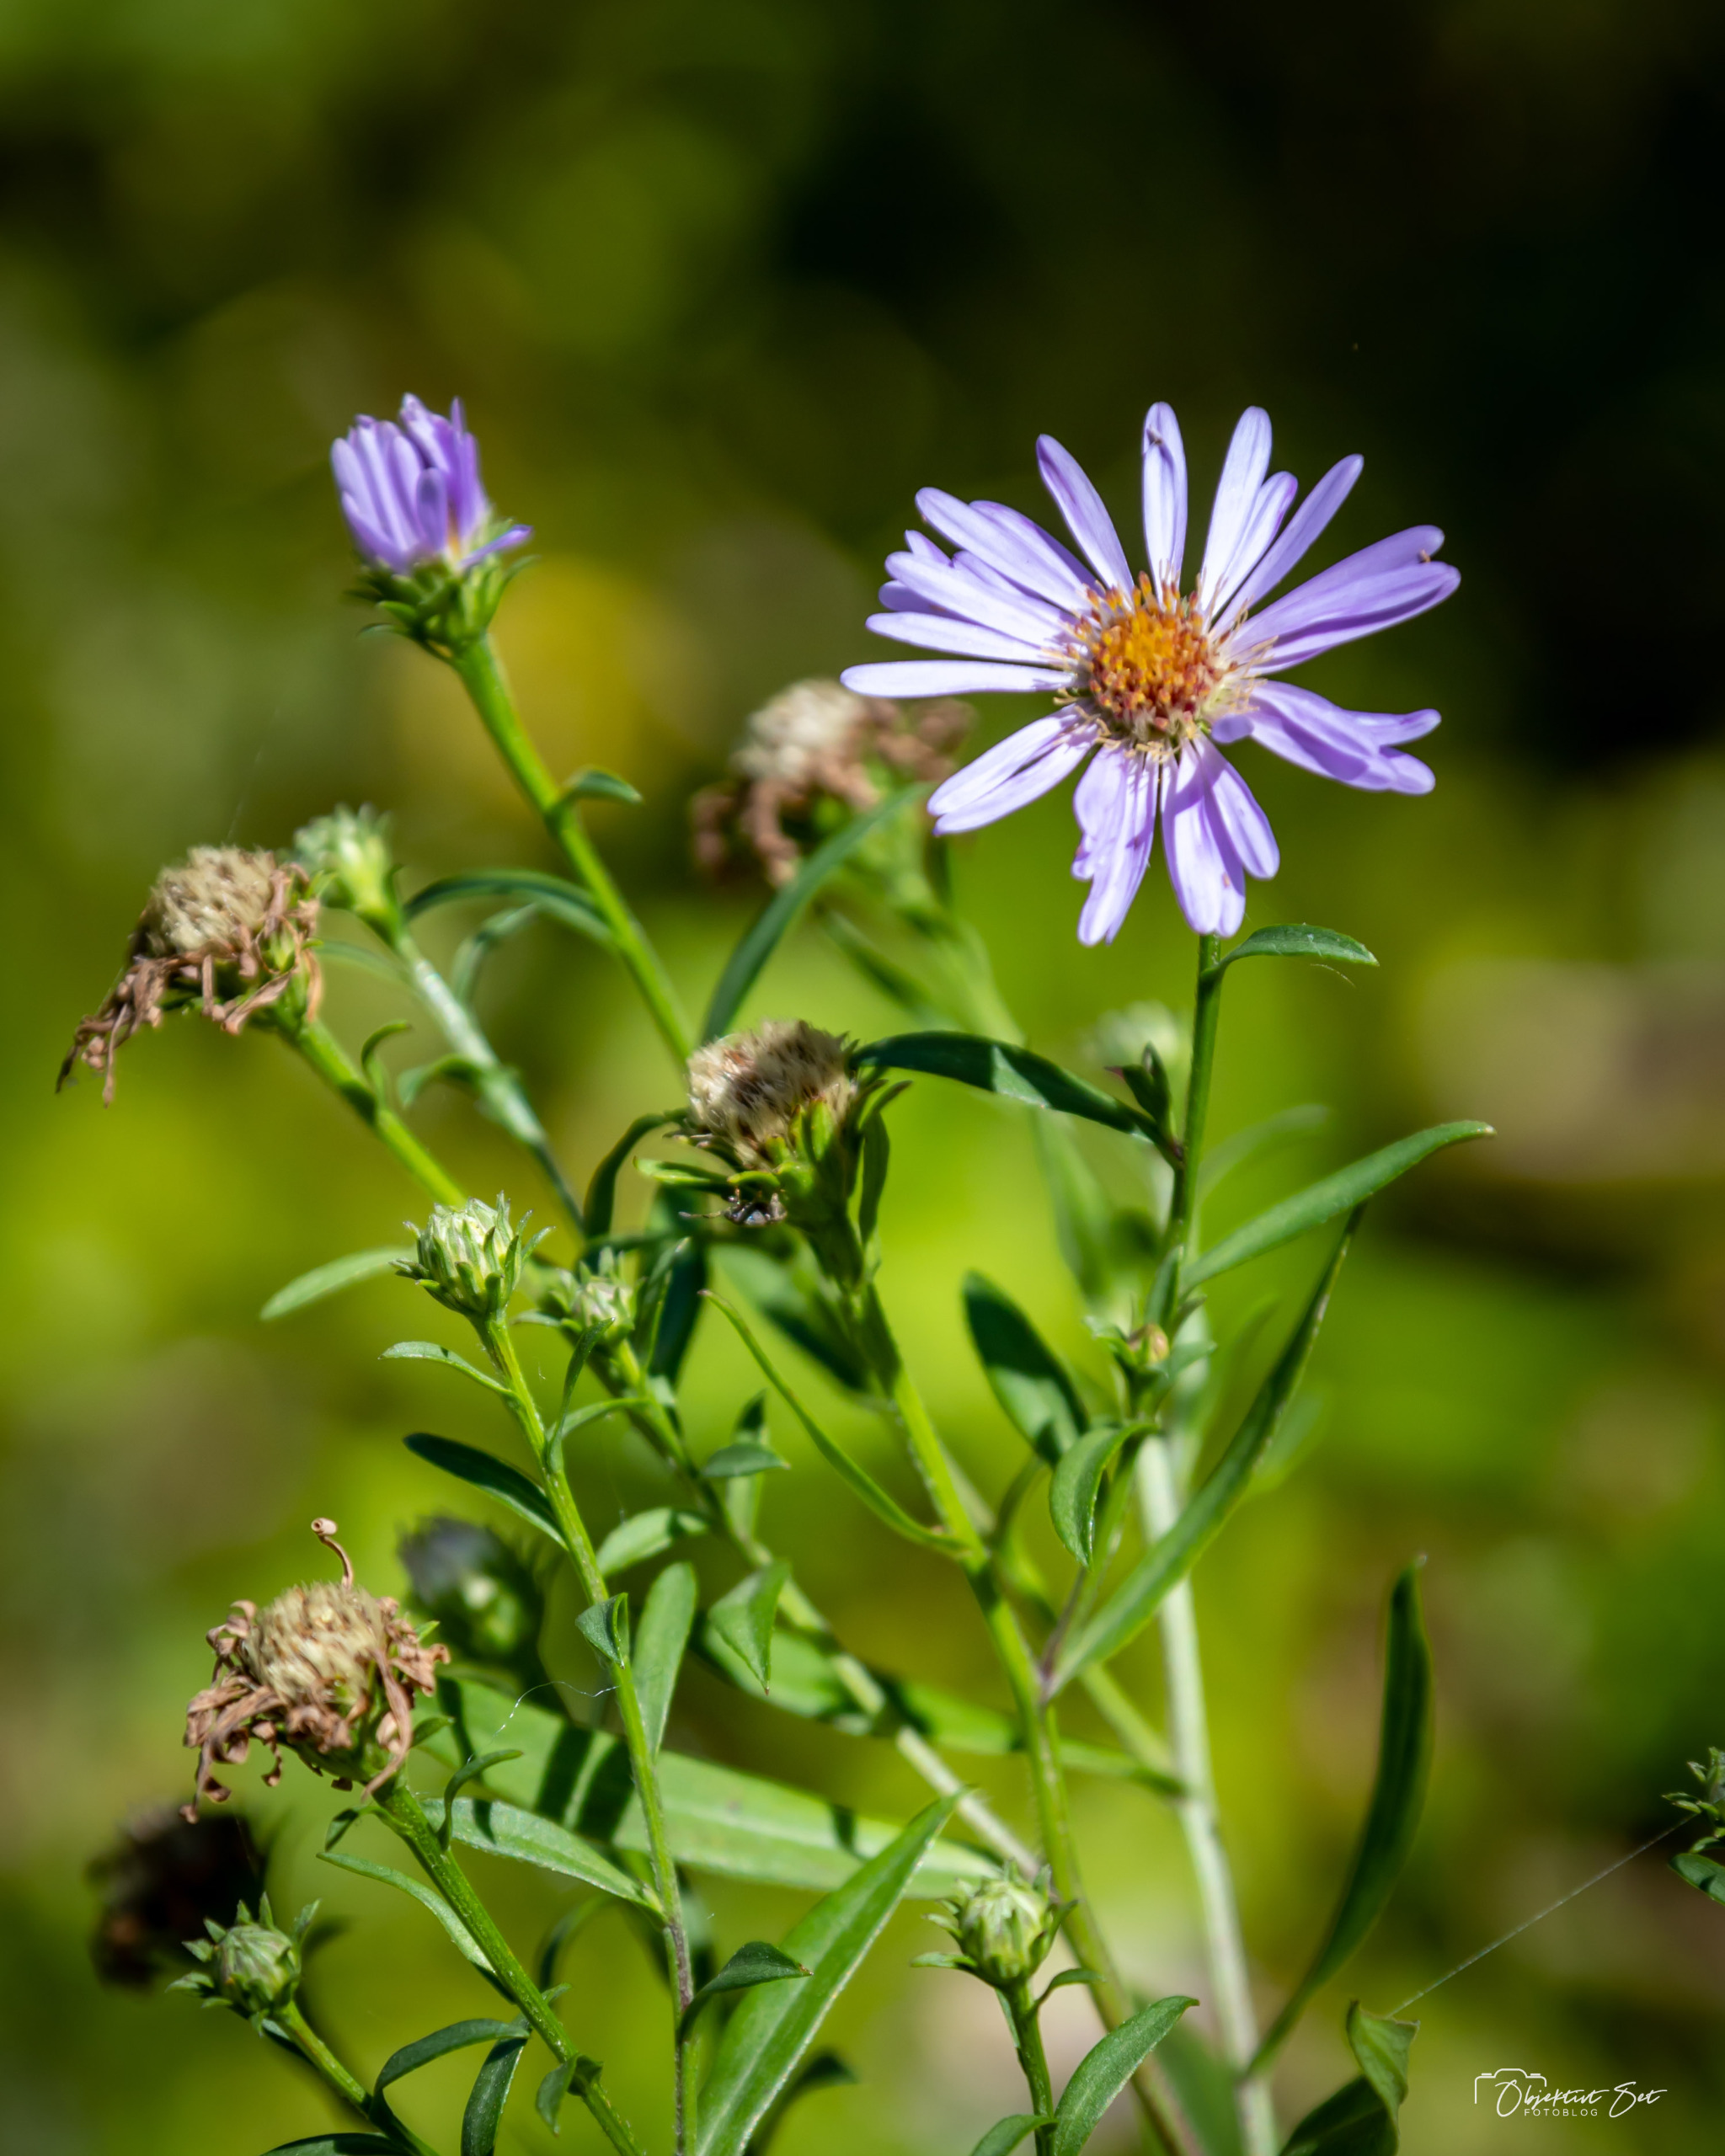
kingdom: Plantae
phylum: Tracheophyta
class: Magnoliopsida
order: Asterales
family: Asteraceae
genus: Tripolium
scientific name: Tripolium pannonicum
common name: Strandasters
